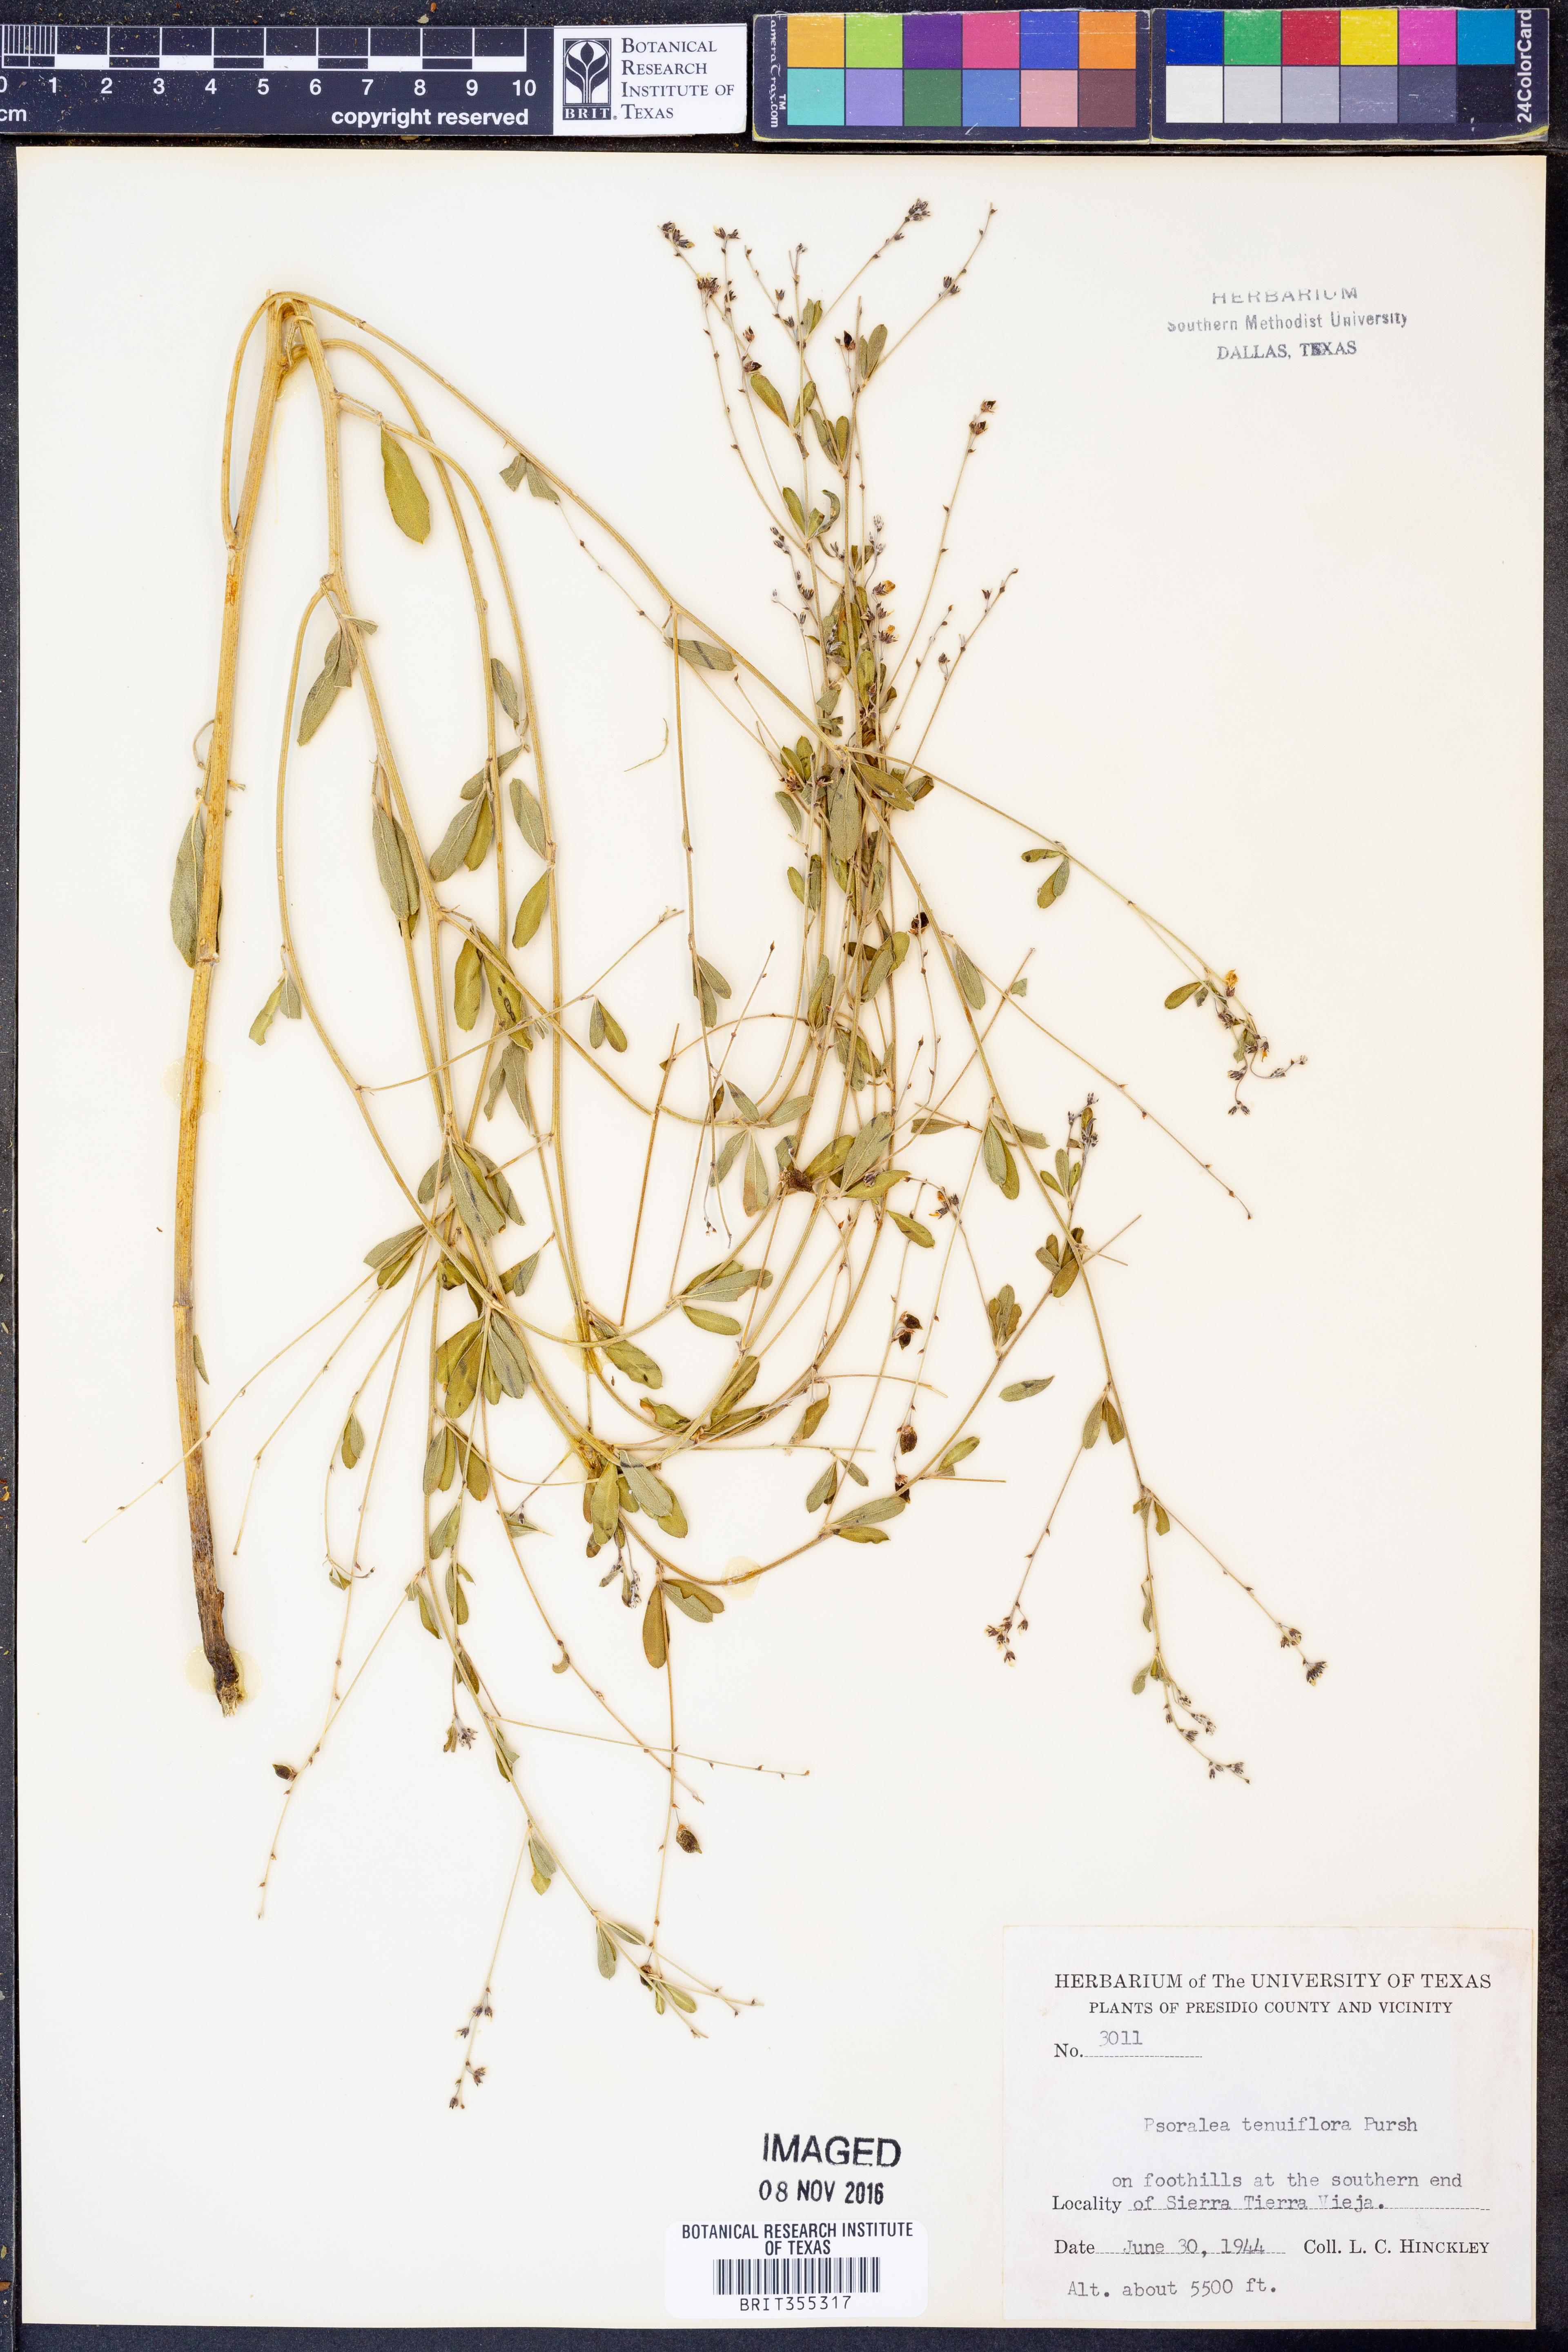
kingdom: Plantae
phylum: Tracheophyta
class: Magnoliopsida
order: Fabales
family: Fabaceae
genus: Pediomelum
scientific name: Pediomelum tenuiflorum
